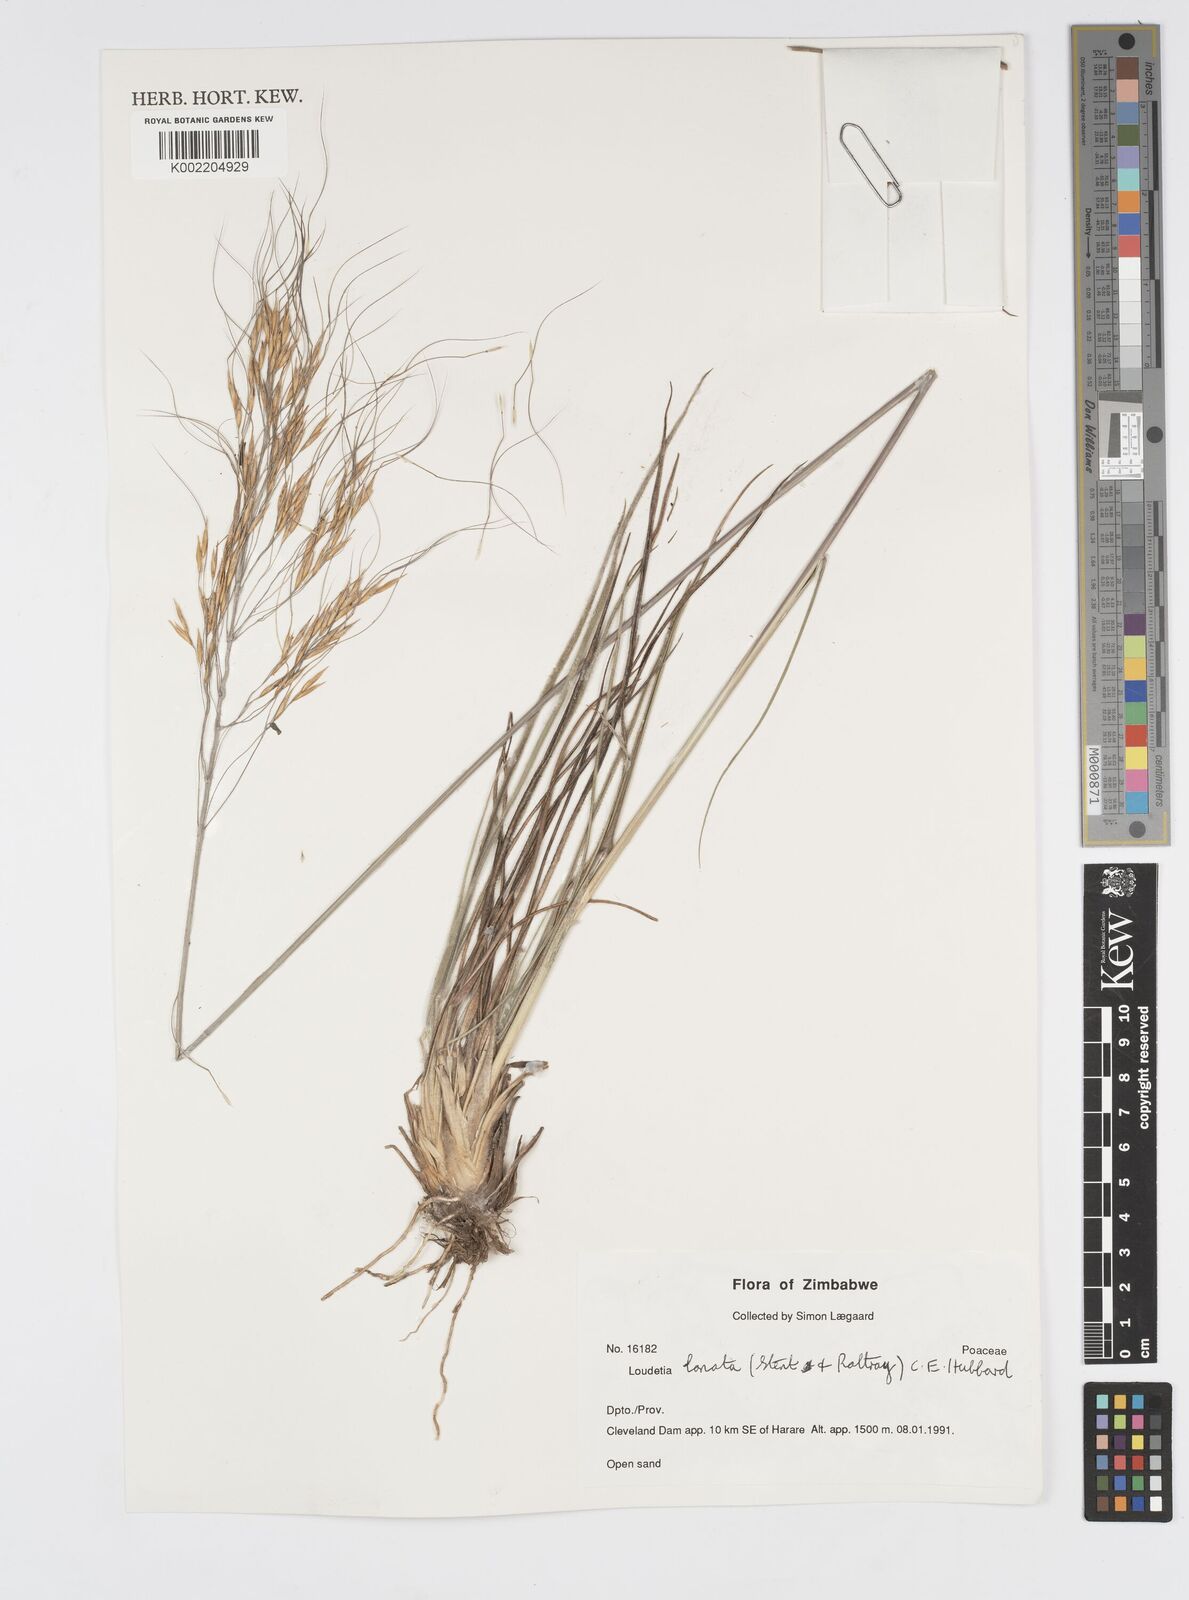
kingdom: Plantae
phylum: Tracheophyta
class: Liliopsida
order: Poales
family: Poaceae
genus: Loudetia
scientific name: Loudetia lanata
